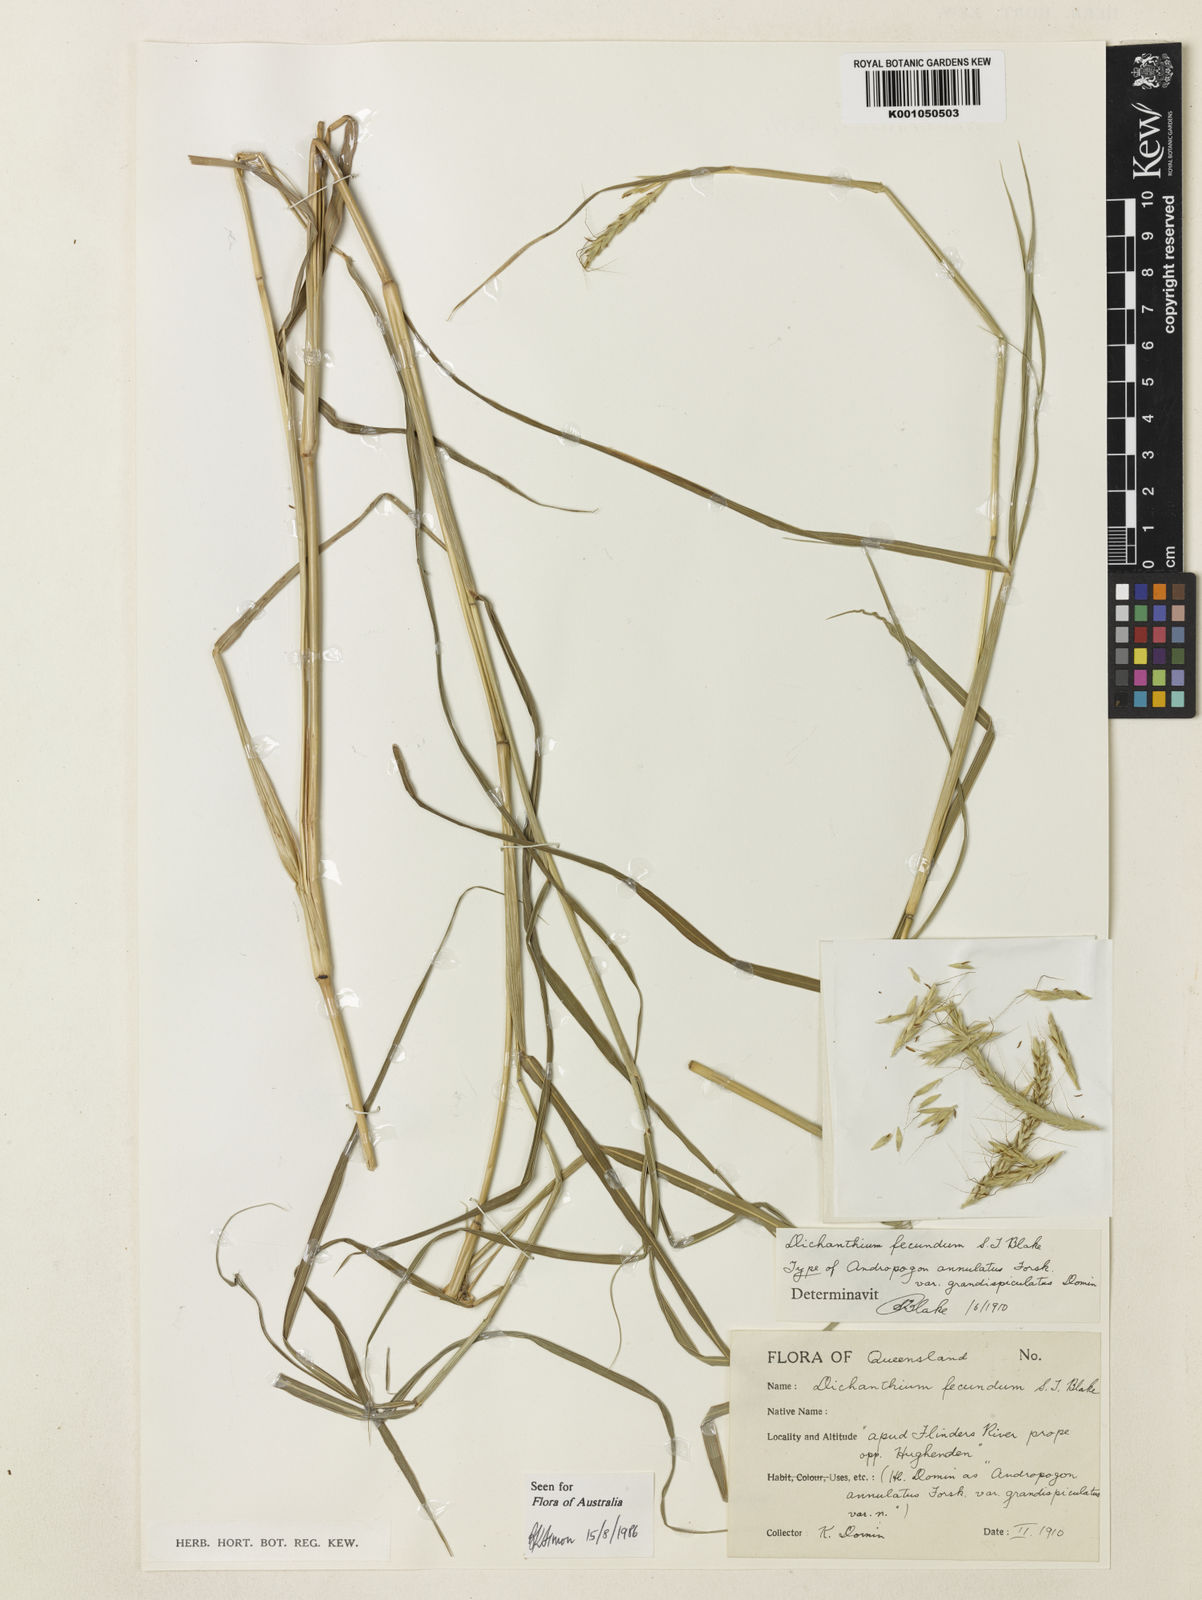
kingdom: Plantae
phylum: Tracheophyta
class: Liliopsida
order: Poales
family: Poaceae
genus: Dichanthium
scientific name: Dichanthium annulatum
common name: Kleberg's bluestem
